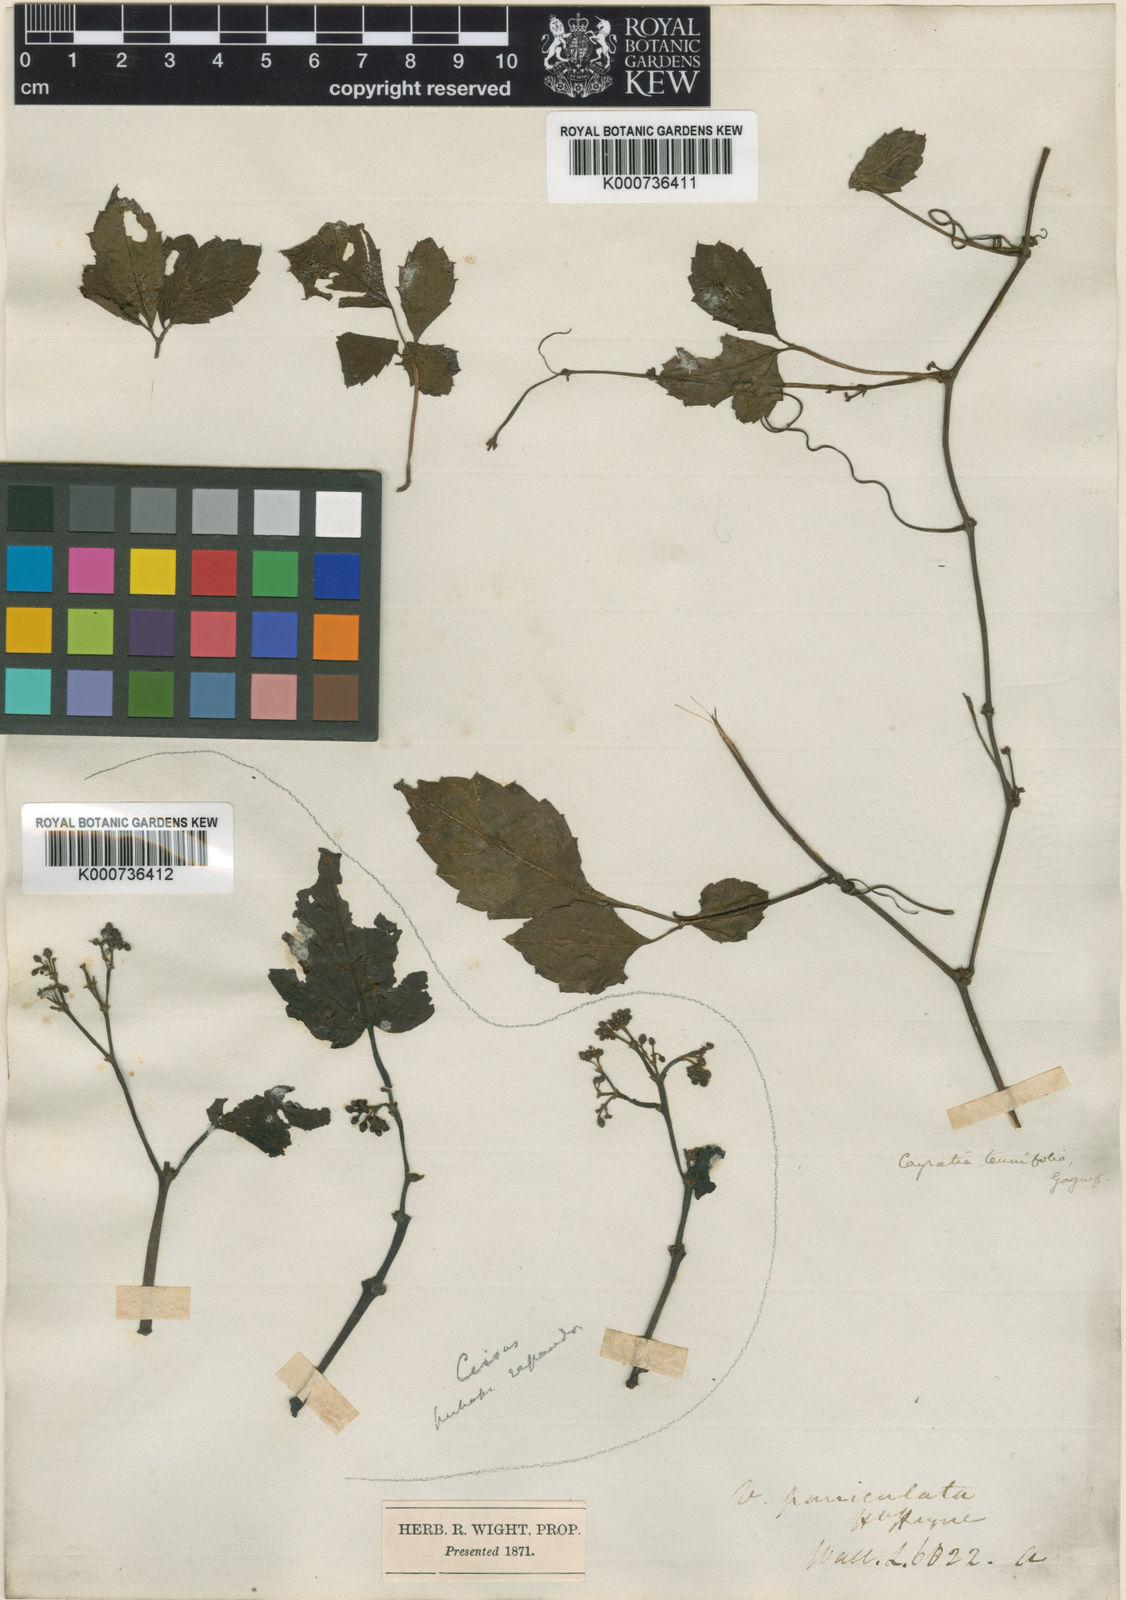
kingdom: Plantae
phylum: Tracheophyta
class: Magnoliopsida
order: Vitales
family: Vitaceae
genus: Causonis
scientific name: Causonis tenuifolia
